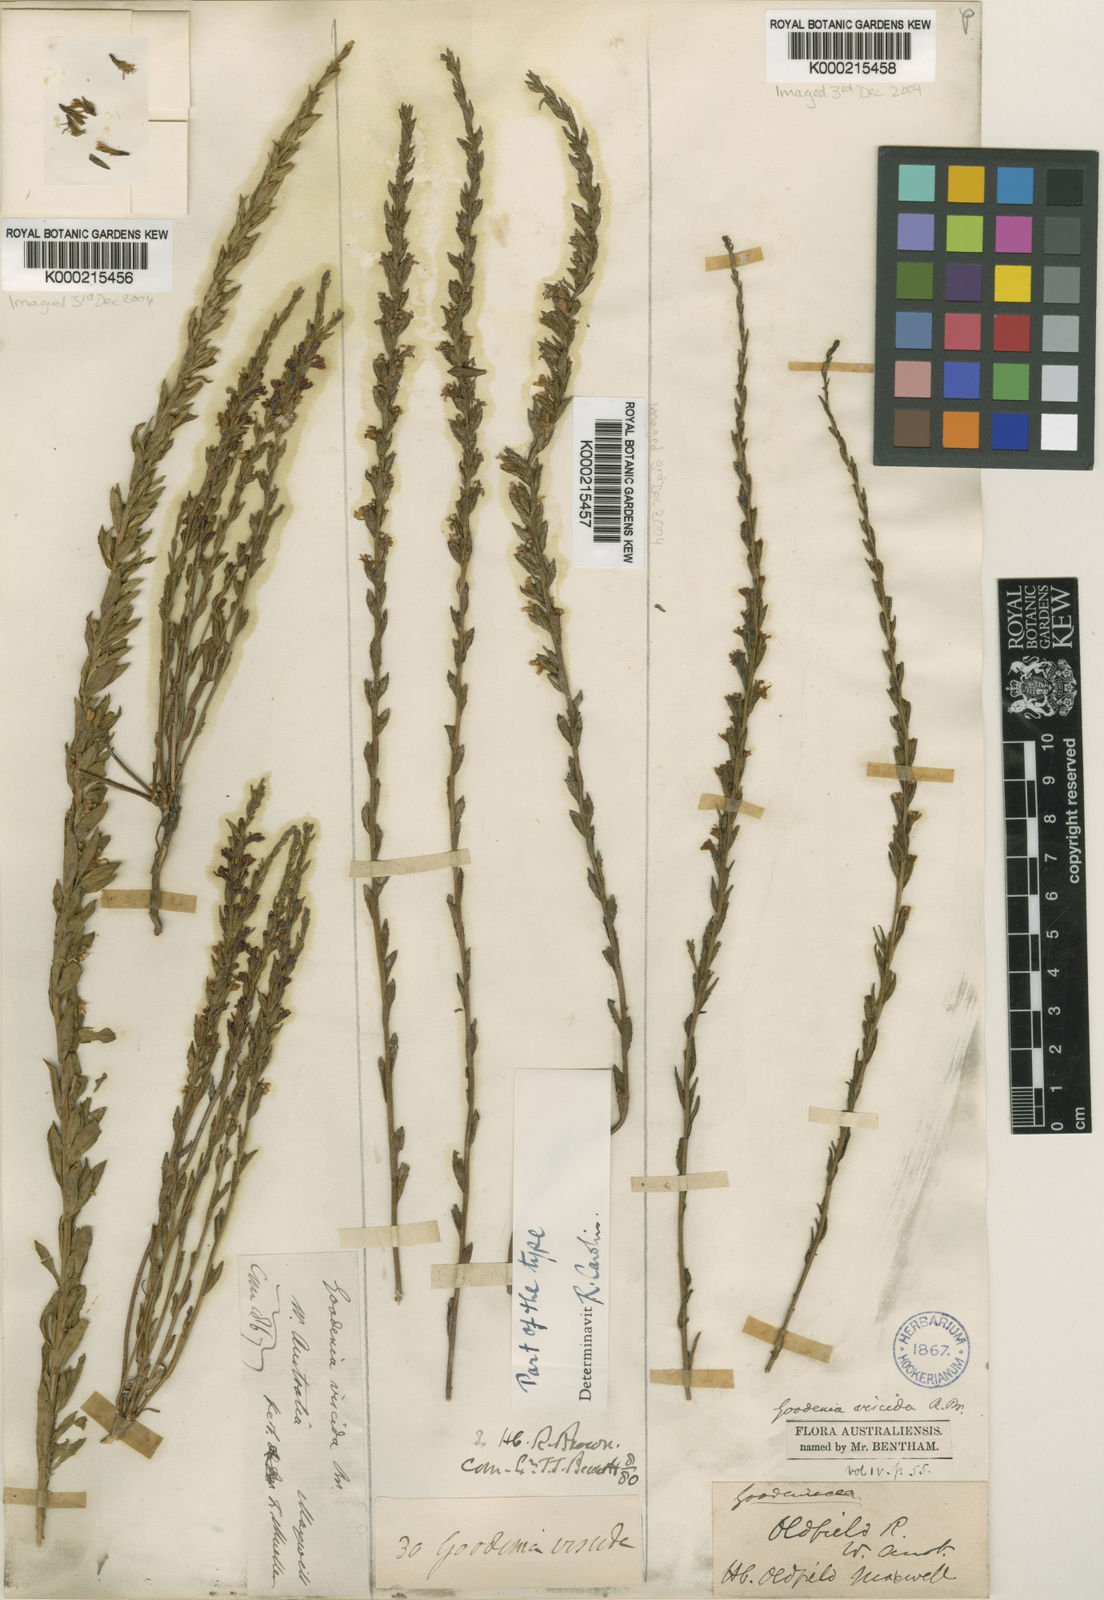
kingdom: Plantae
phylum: Tracheophyta
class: Magnoliopsida
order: Asterales
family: Goodeniaceae
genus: Goodenia
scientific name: Goodenia viscida
